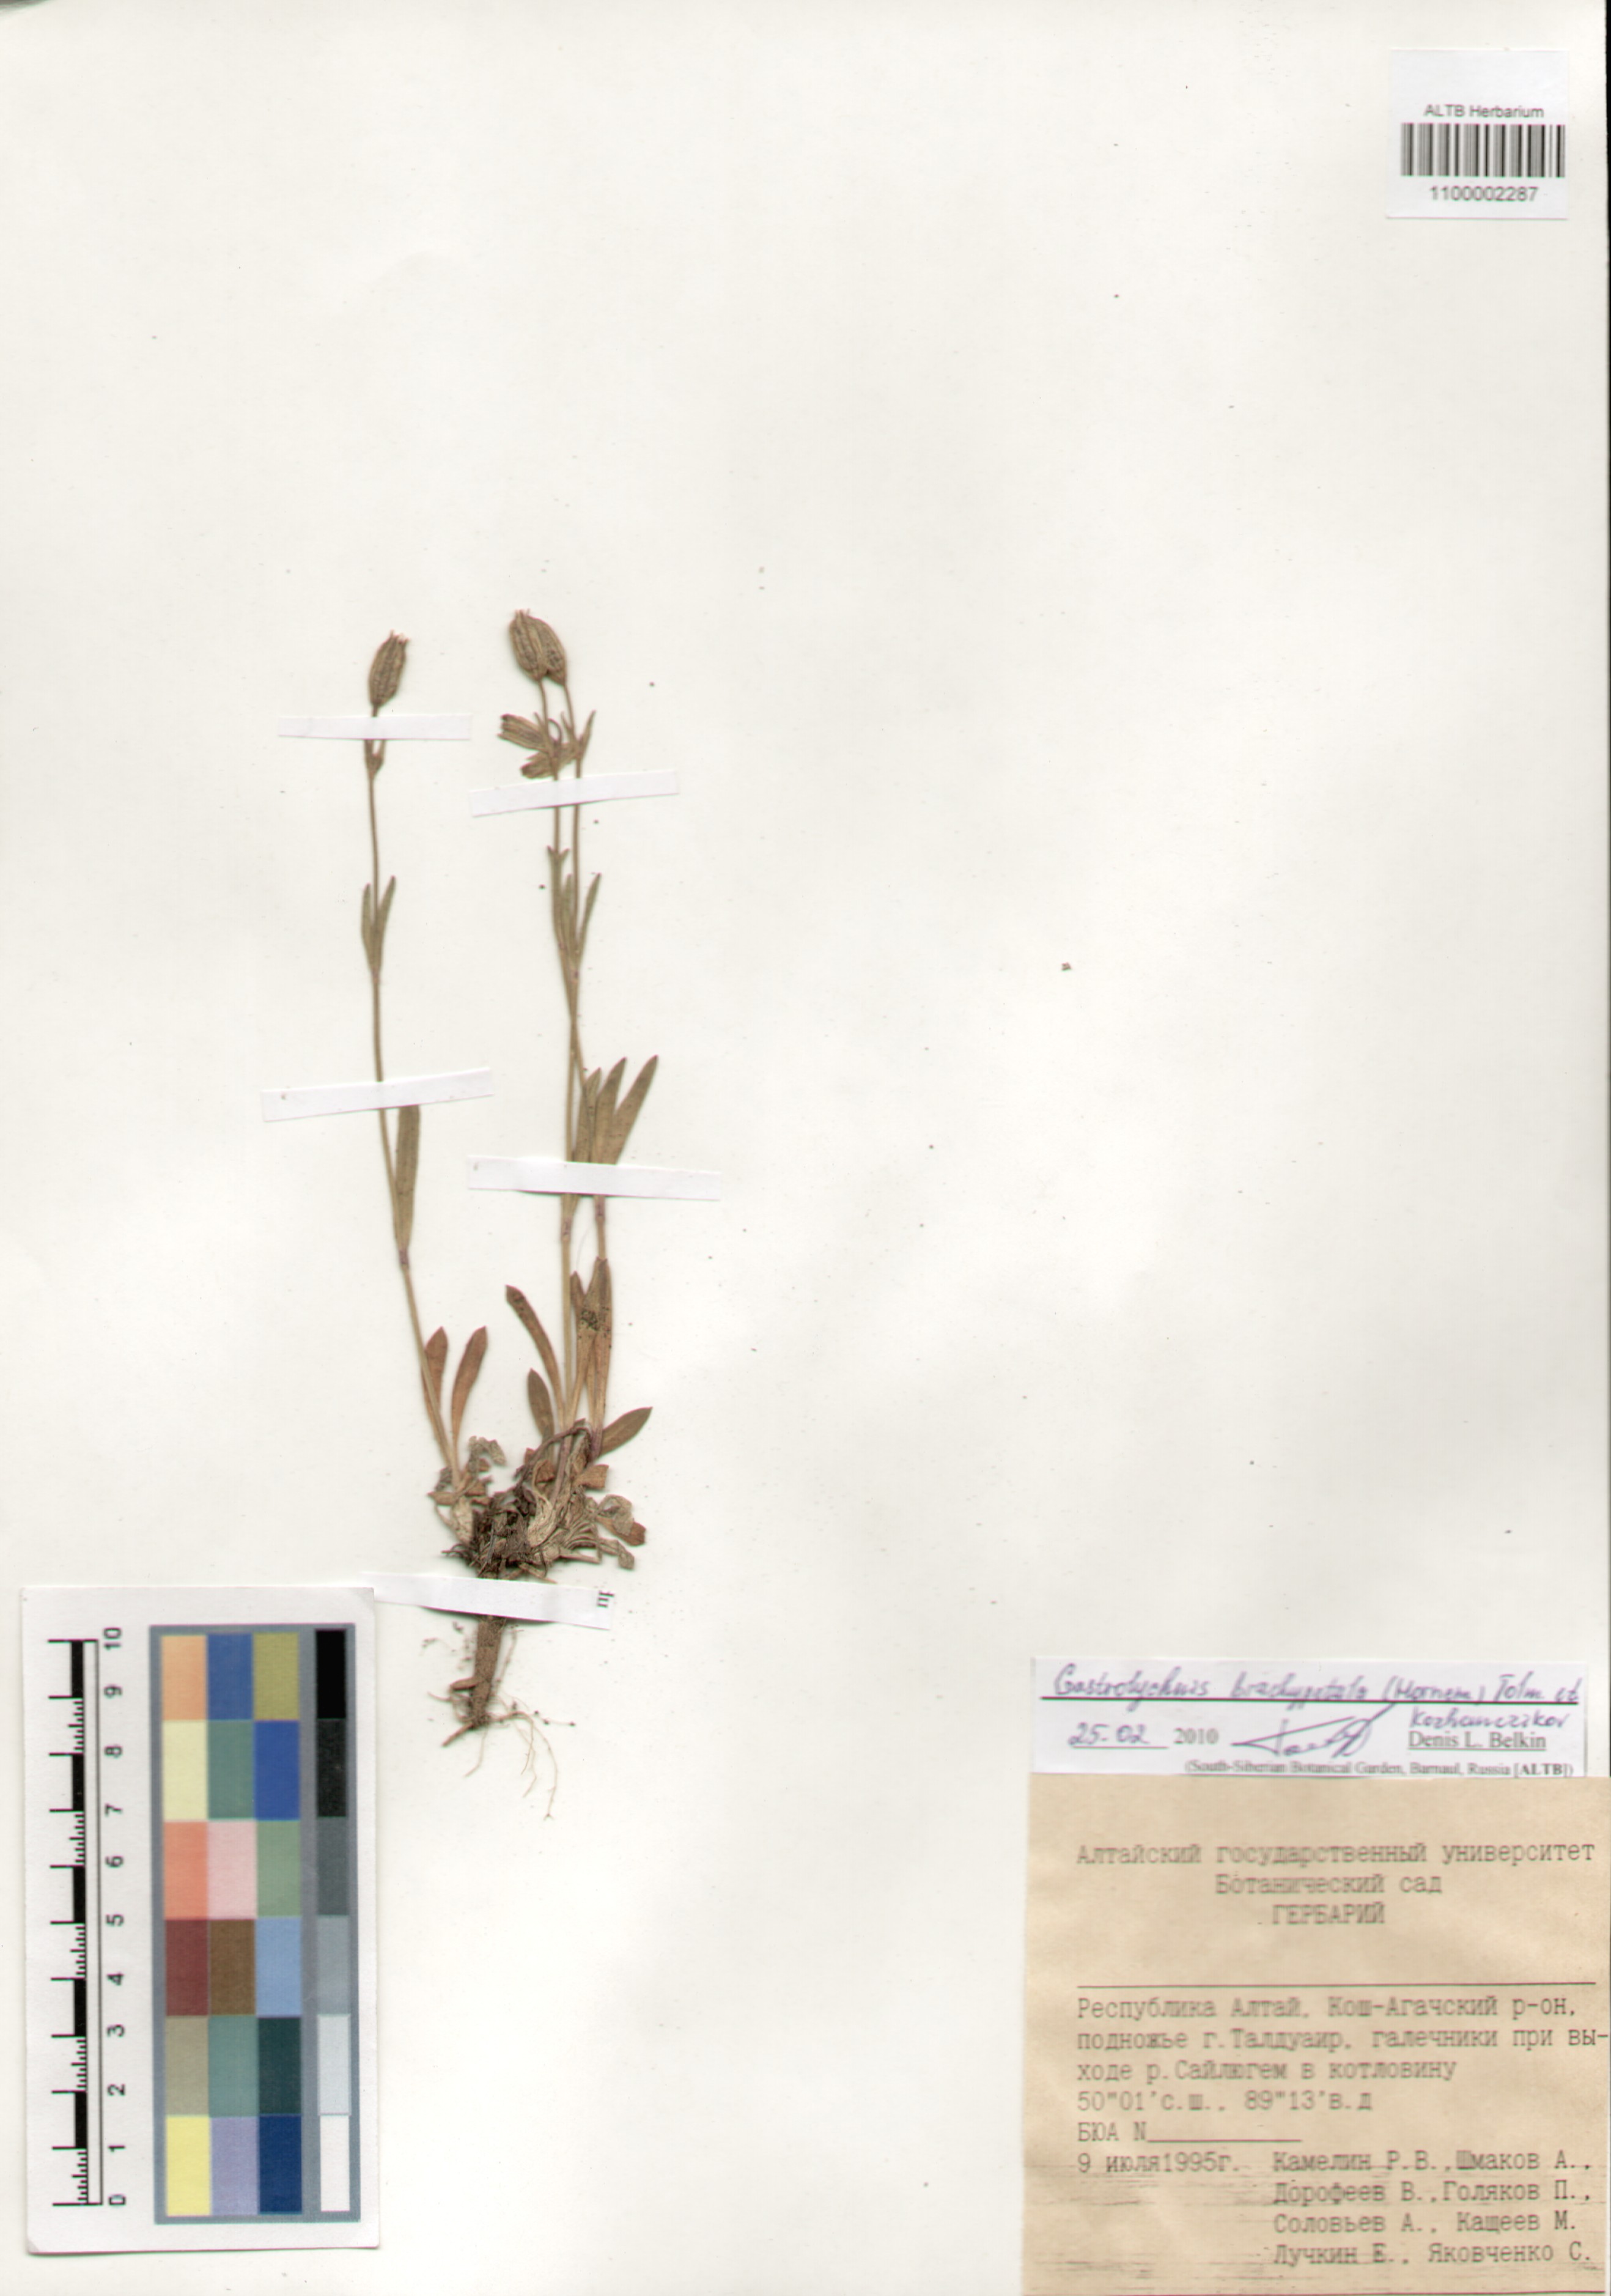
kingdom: Plantae
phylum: Tracheophyta
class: Magnoliopsida
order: Caryophyllales
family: Caryophyllaceae
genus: Silene
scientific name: Silene songarica
